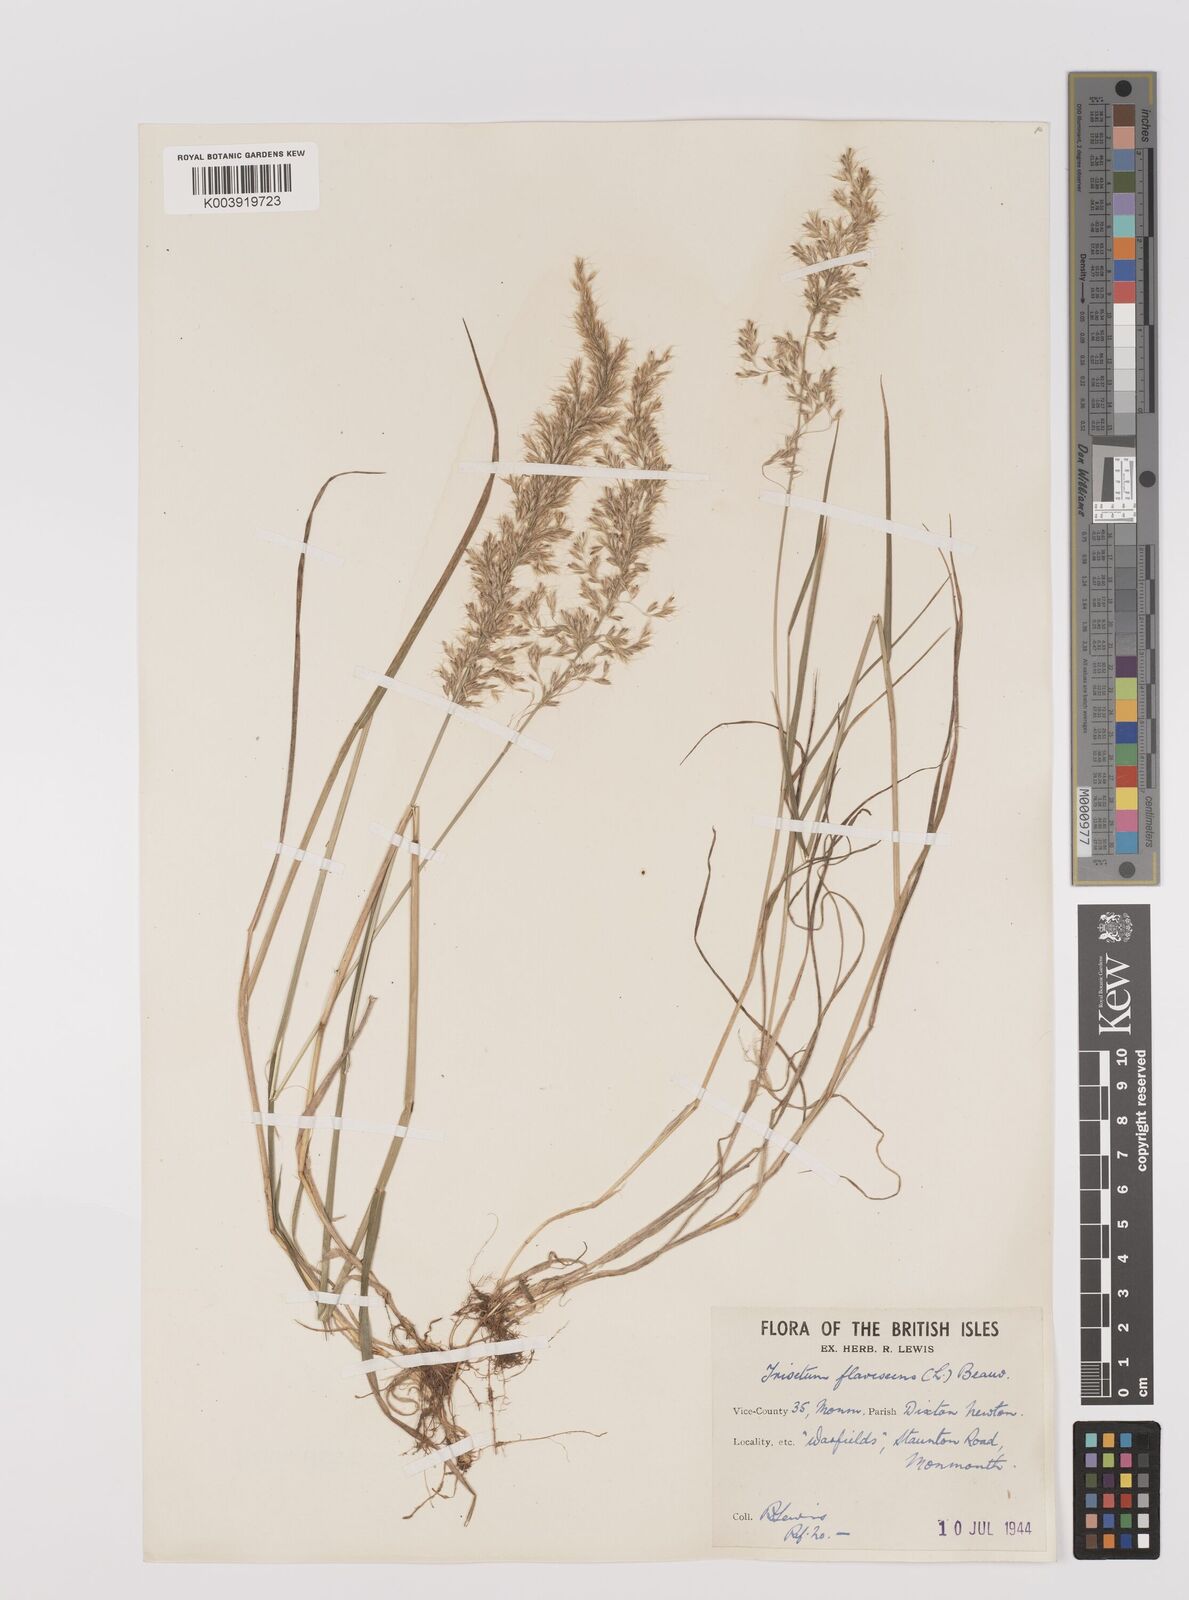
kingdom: Plantae
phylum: Tracheophyta
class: Liliopsida
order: Poales
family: Poaceae
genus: Trisetum
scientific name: Trisetum flavescens
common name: Yellow oat-grass
